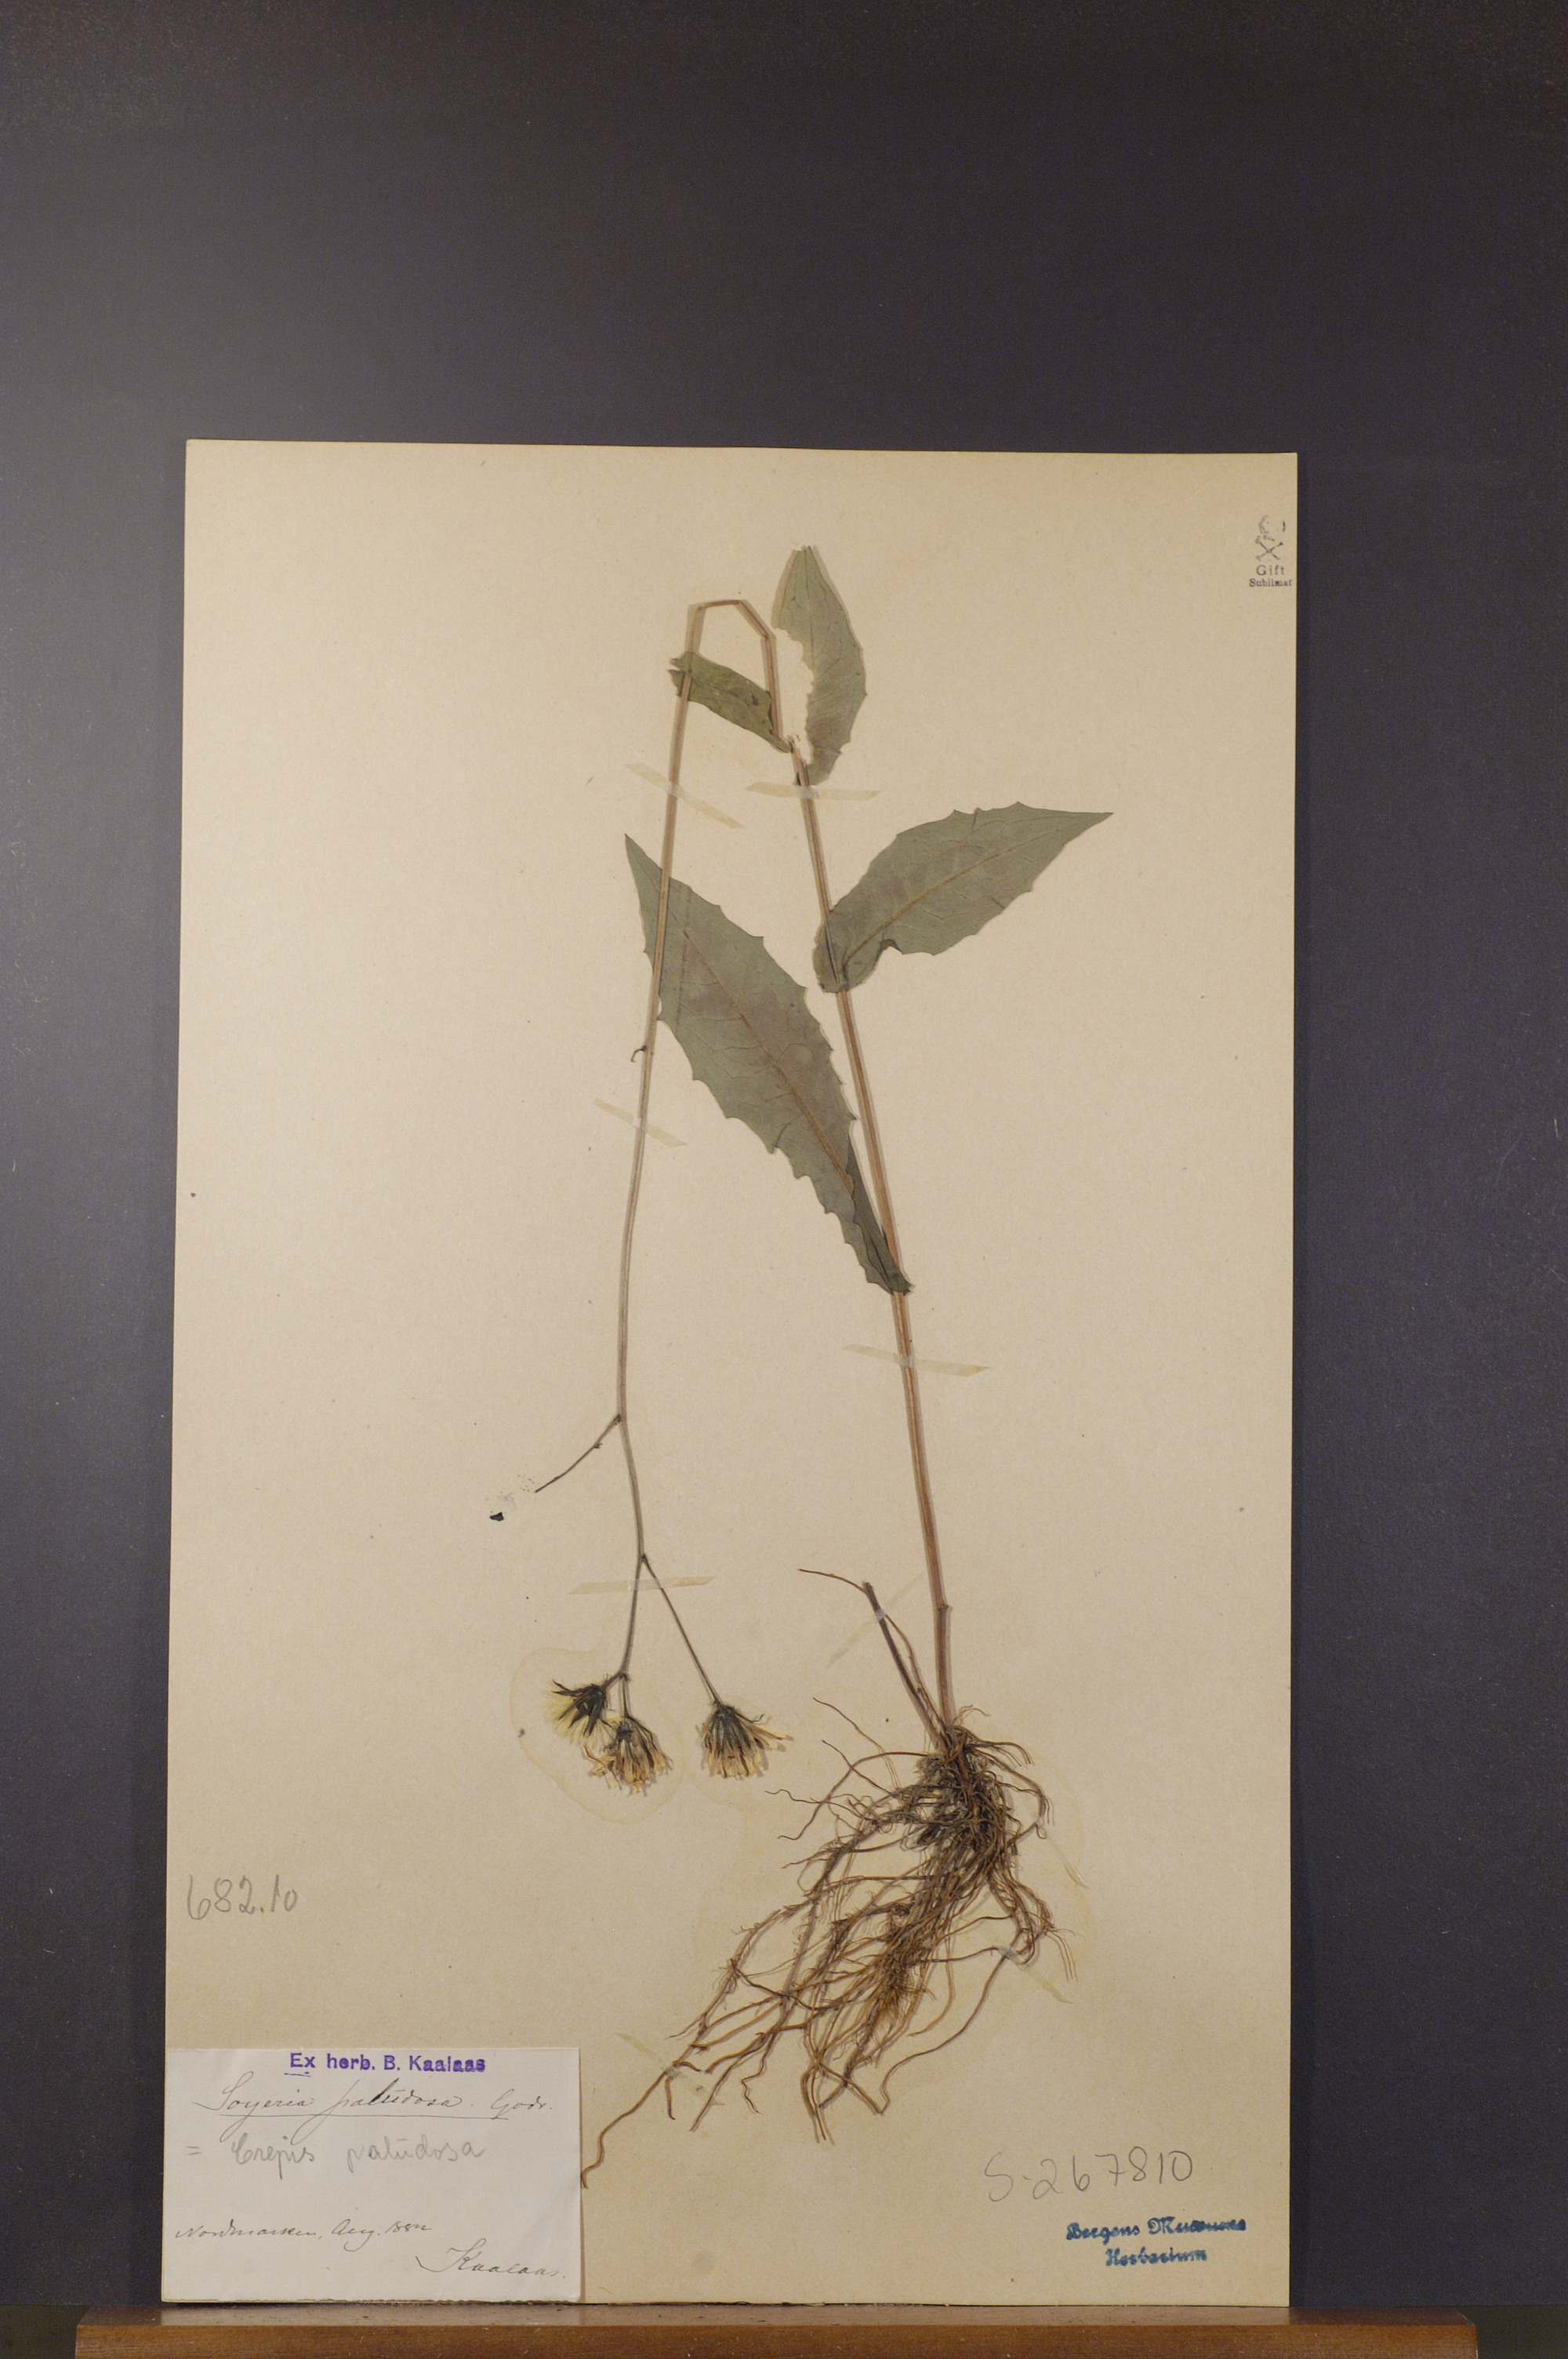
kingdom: Plantae
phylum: Tracheophyta
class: Magnoliopsida
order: Asterales
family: Asteraceae
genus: Crepis
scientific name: Crepis paludosa
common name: Marsh hawk's-beard
